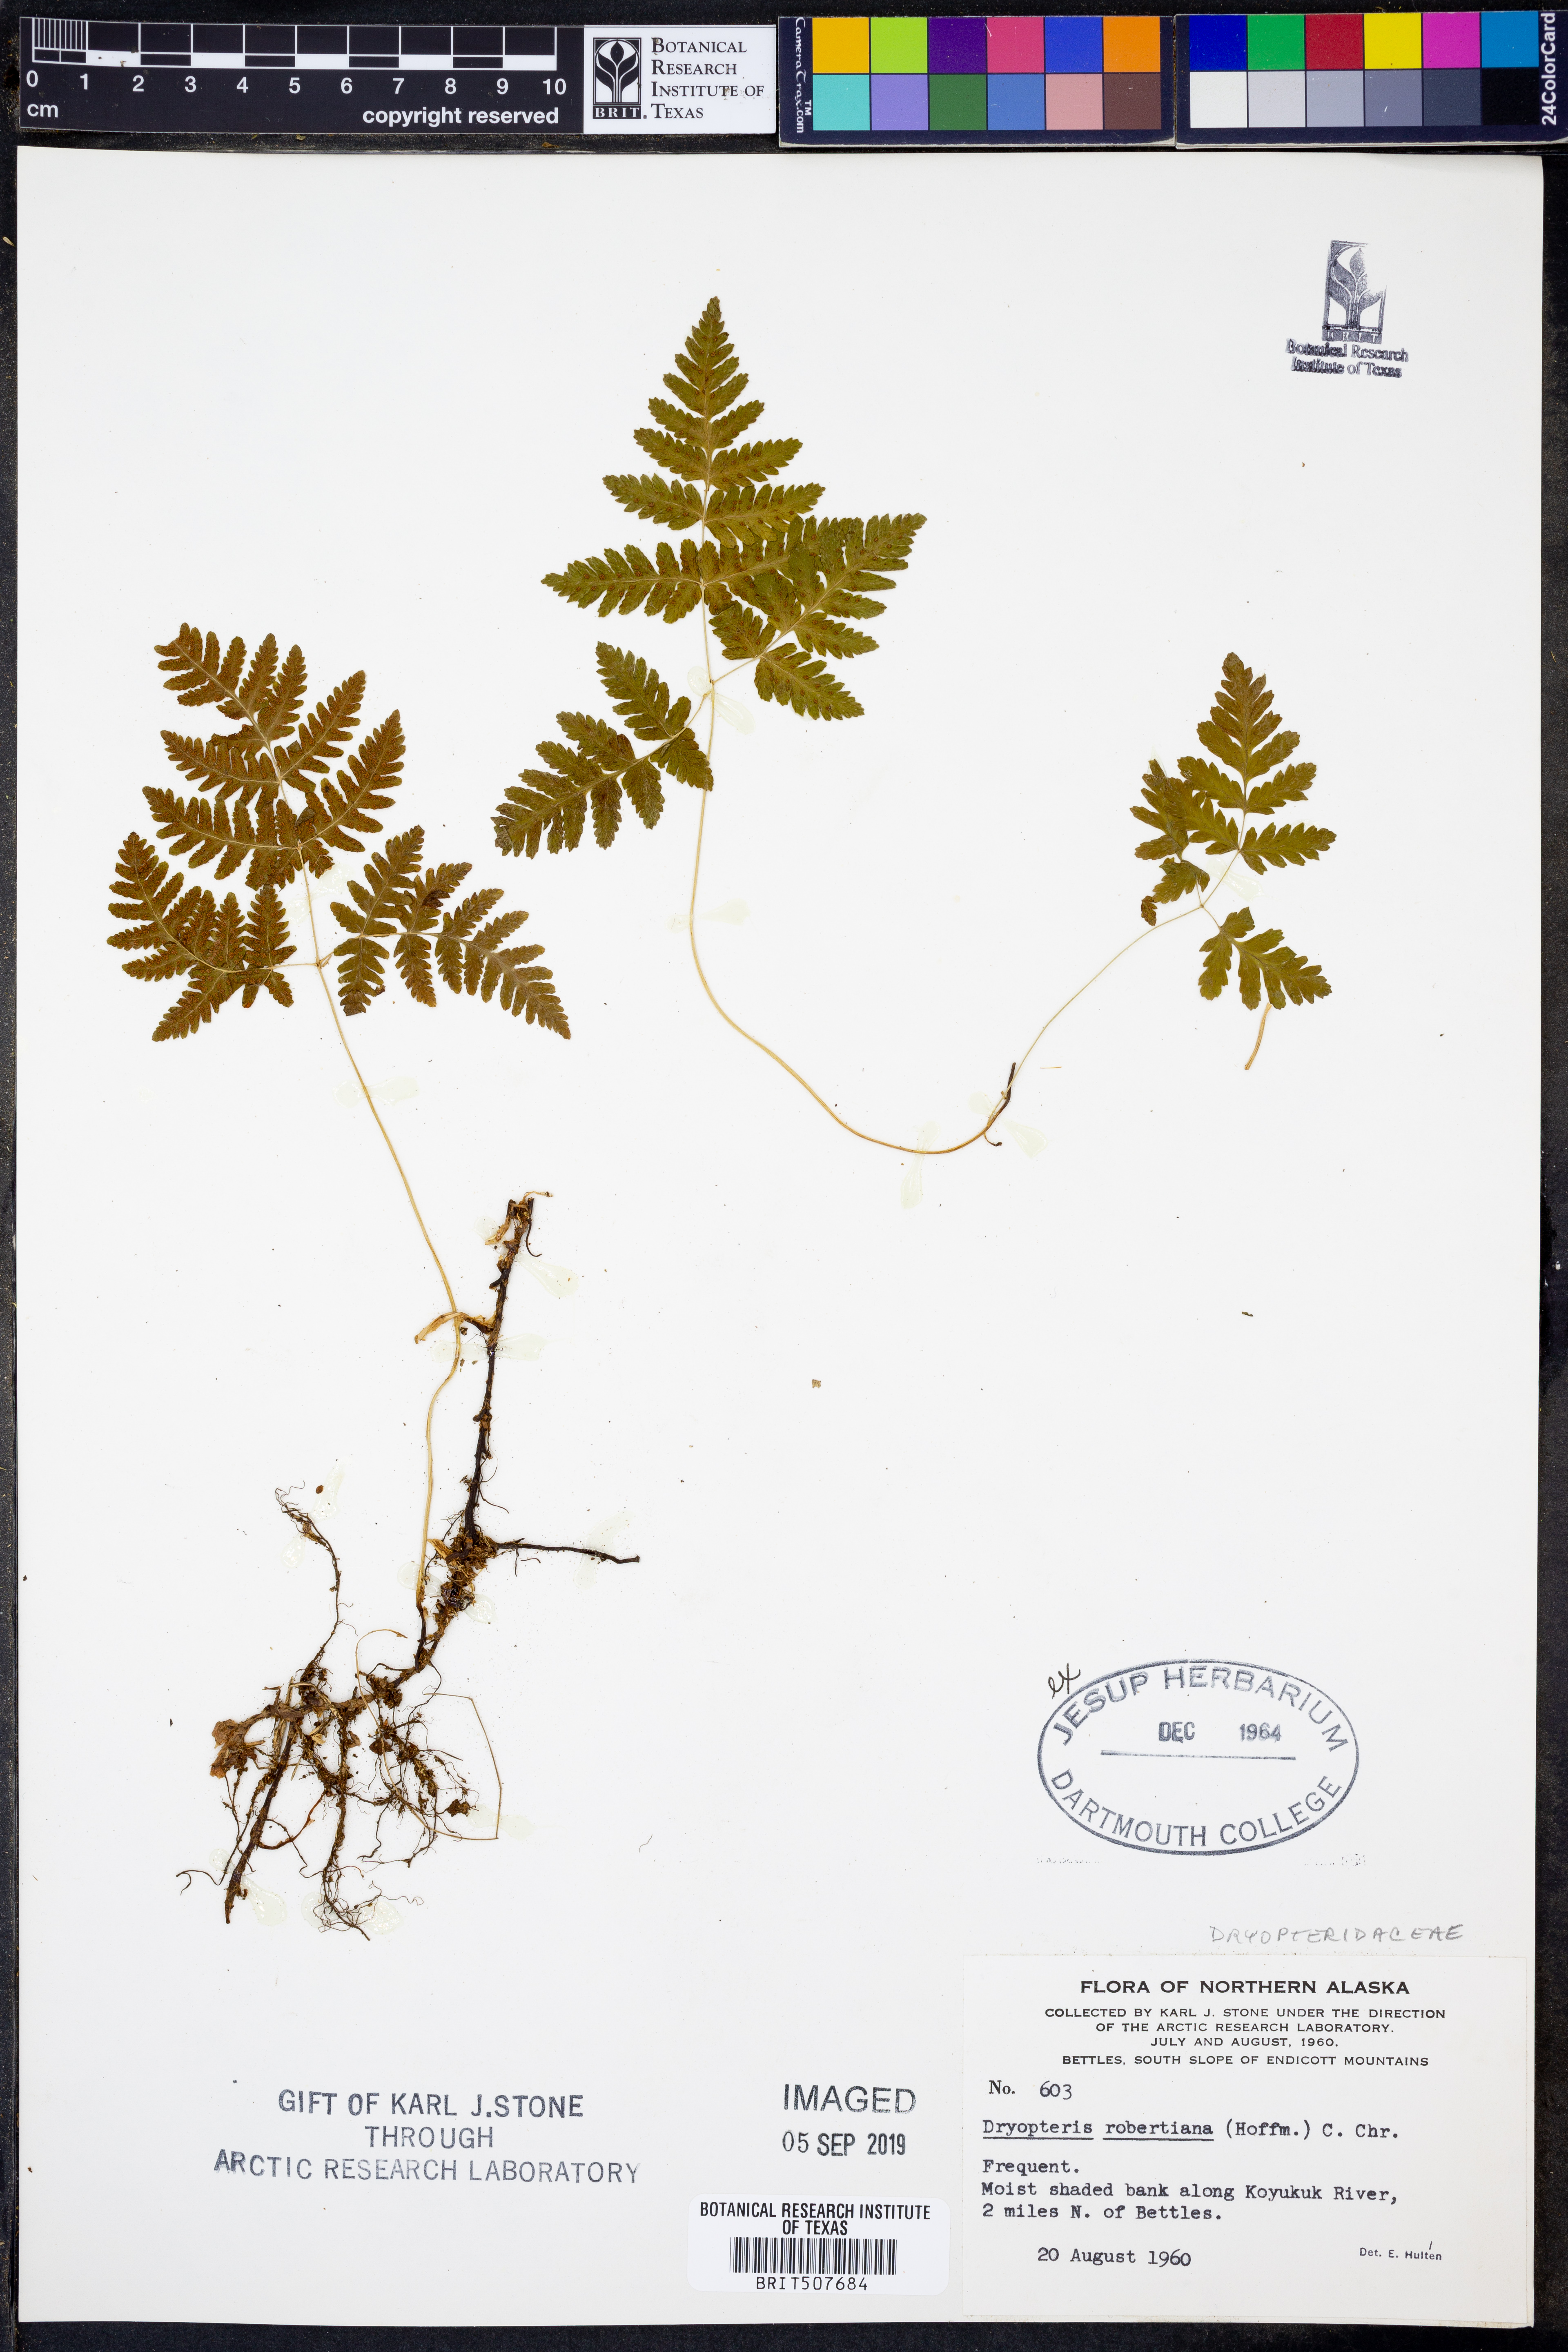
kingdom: Plantae
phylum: Tracheophyta
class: Polypodiopsida
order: Polypodiales
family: Cystopteridaceae
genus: Gymnocarpium
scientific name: Gymnocarpium robertianum
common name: Limestone fern
